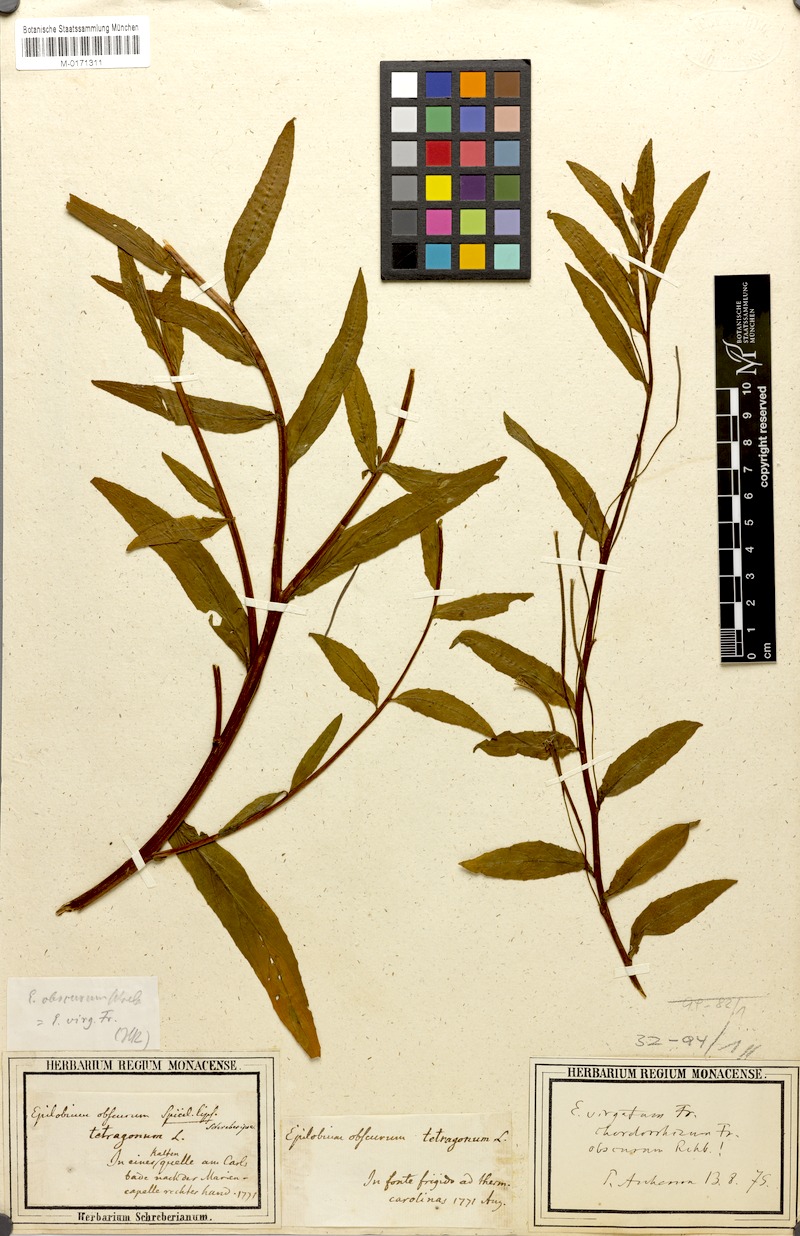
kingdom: Plantae
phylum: Tracheophyta
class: Magnoliopsida
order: Myrtales
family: Onagraceae
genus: Epilobium
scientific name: Epilobium obscurum
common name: Short-fruited willowherb
